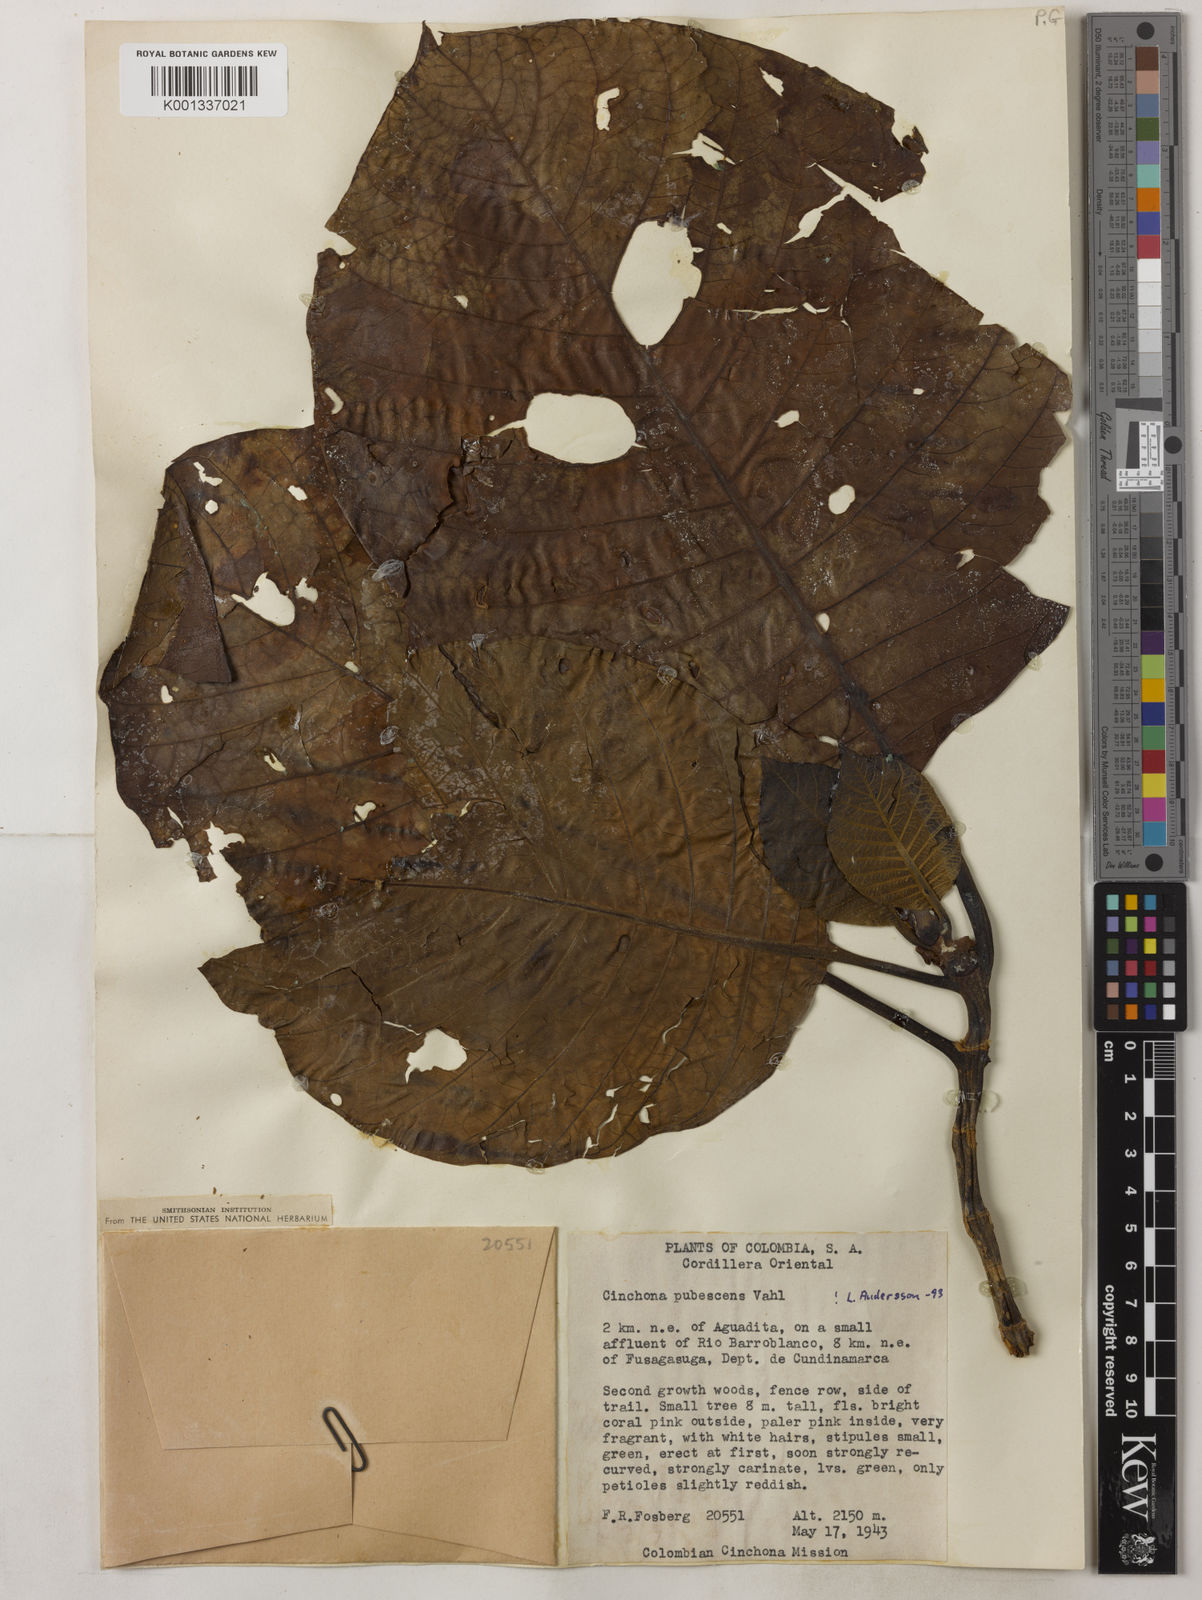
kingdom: Plantae
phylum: Tracheophyta
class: Magnoliopsida
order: Gentianales
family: Rubiaceae
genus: Cinchona
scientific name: Cinchona pubescens
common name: Quinine
